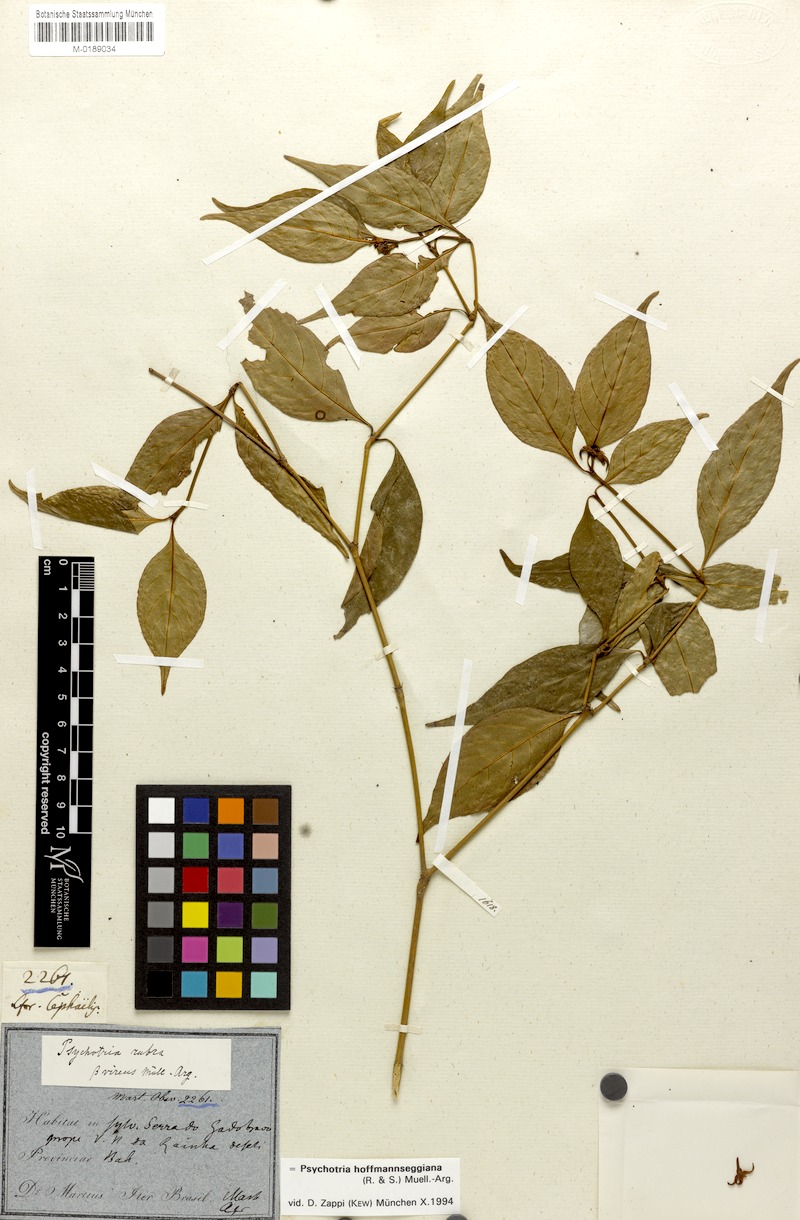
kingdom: Plantae
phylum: Tracheophyta
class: Magnoliopsida
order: Gentianales
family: Rubiaceae
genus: Palicourea
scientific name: Palicourea hoffmannseggiana
